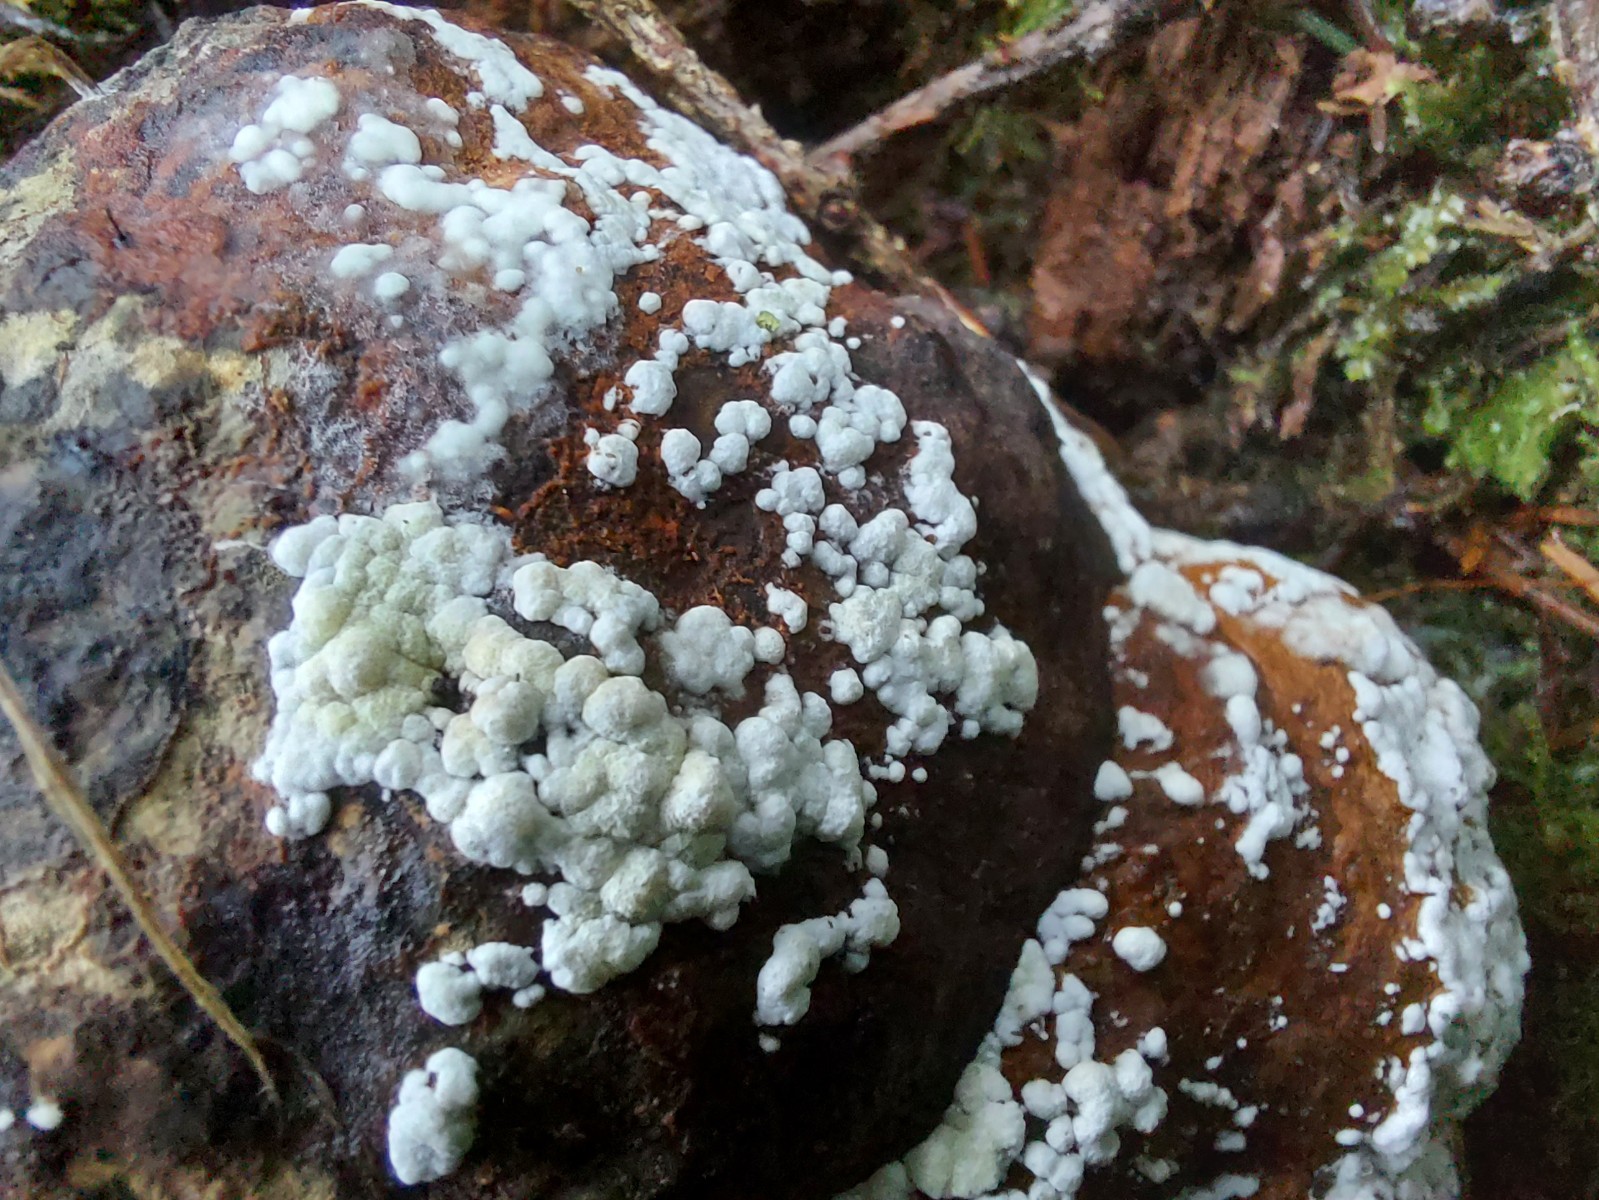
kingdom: Fungi
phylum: Ascomycota
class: Sordariomycetes
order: Hypocreales
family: Hypocreaceae
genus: Trichoderma
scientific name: Trichoderma pulvinatum
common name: snyltende kødkerne
